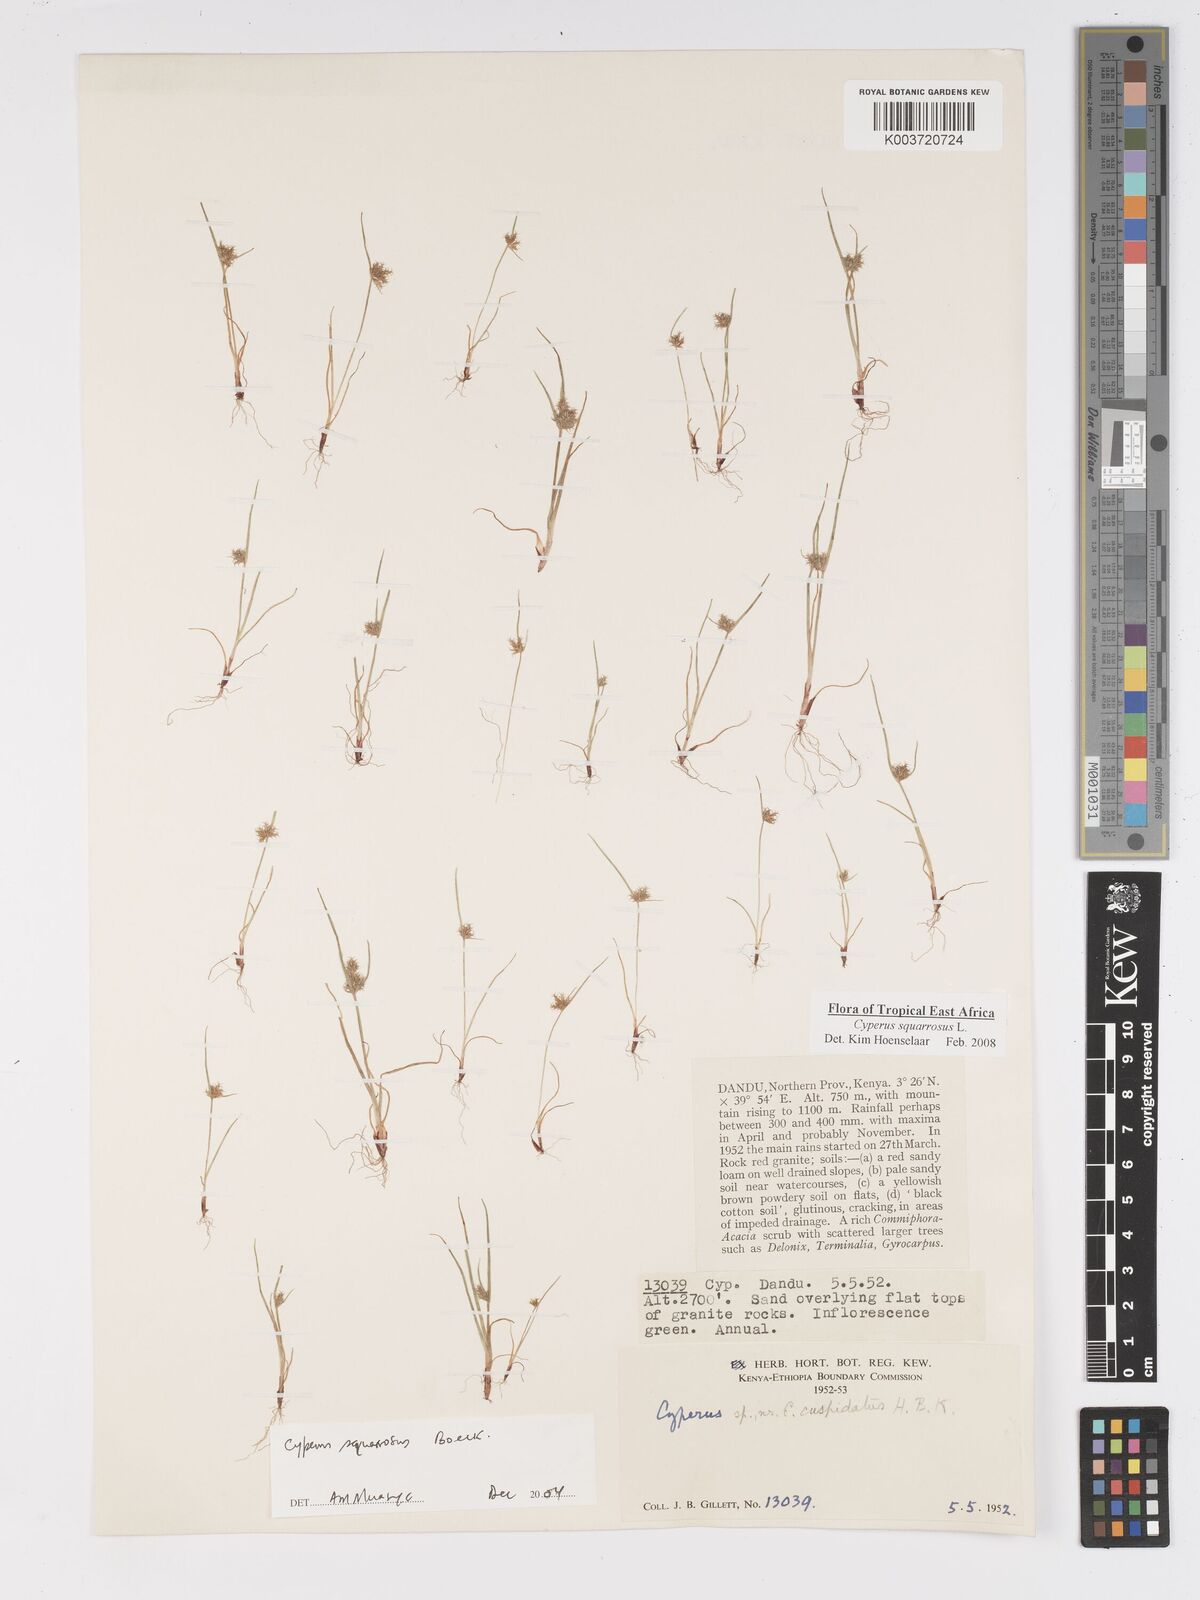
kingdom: Plantae
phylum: Tracheophyta
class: Liliopsida
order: Poales
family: Cyperaceae
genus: Cyperus
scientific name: Cyperus squarrosus
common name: Awned cyperus
